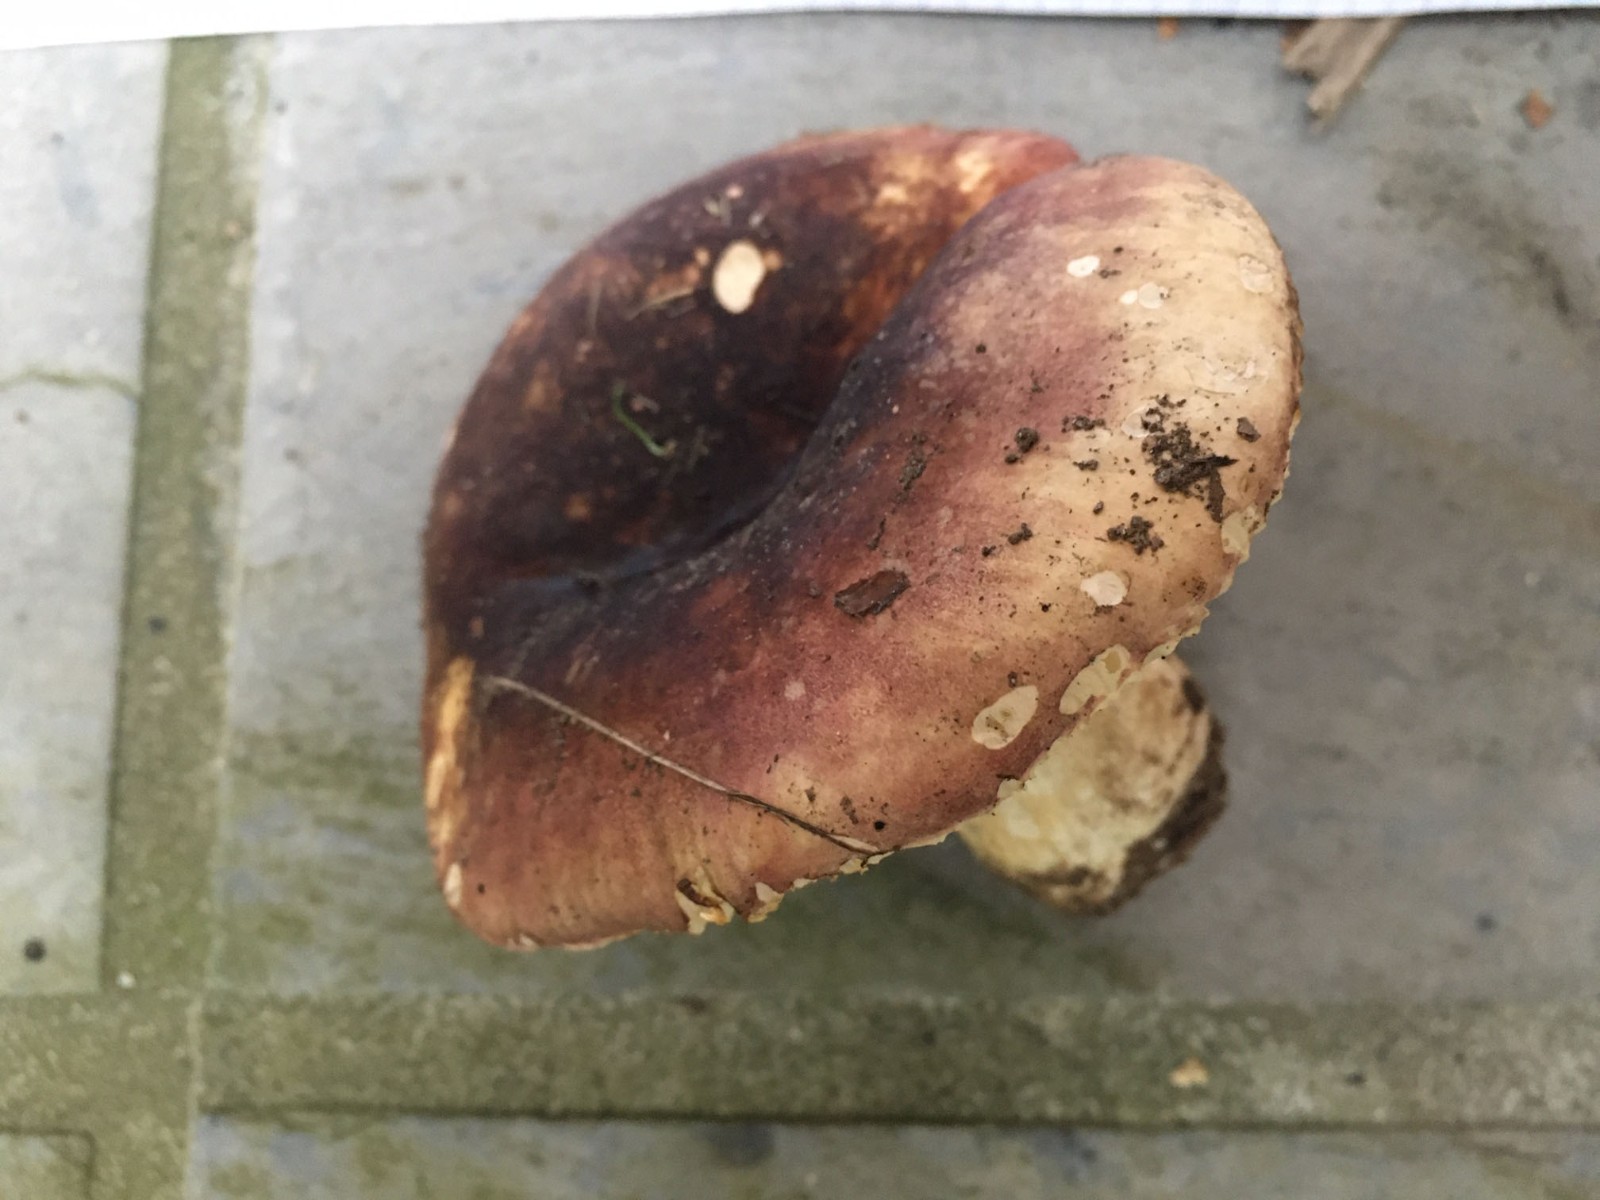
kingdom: Fungi
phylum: Basidiomycota
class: Agaricomycetes
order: Russulales
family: Russulaceae
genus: Russula
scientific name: Russula graveolens
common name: bugtet skørhat
